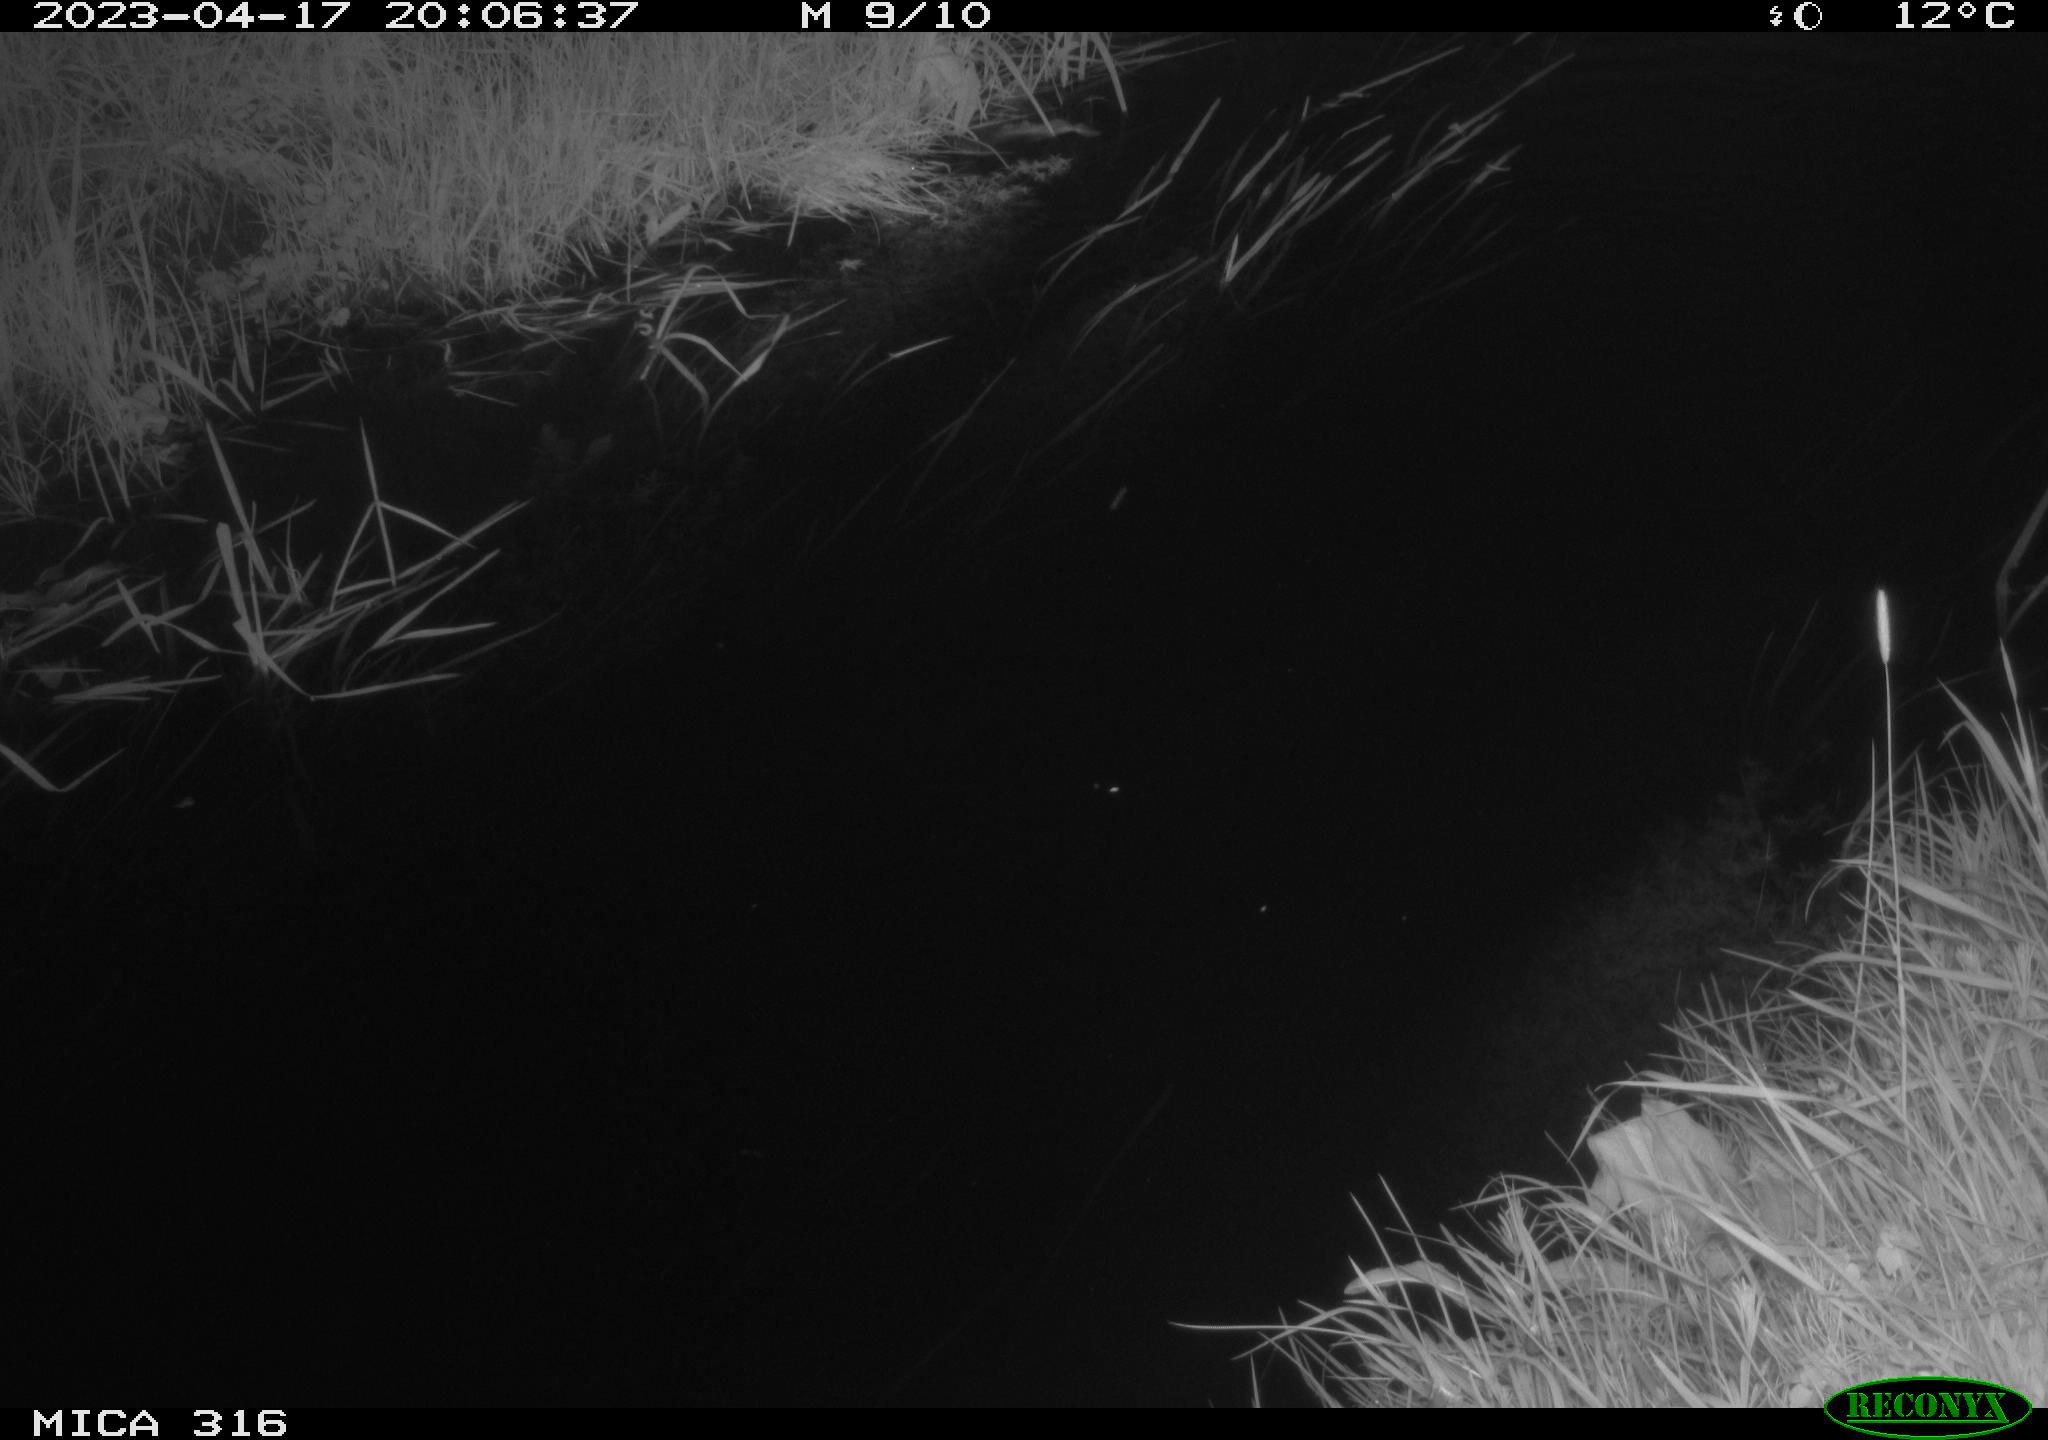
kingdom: Animalia
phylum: Chordata
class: Aves
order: Anseriformes
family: Anatidae
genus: Anas
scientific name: Anas
